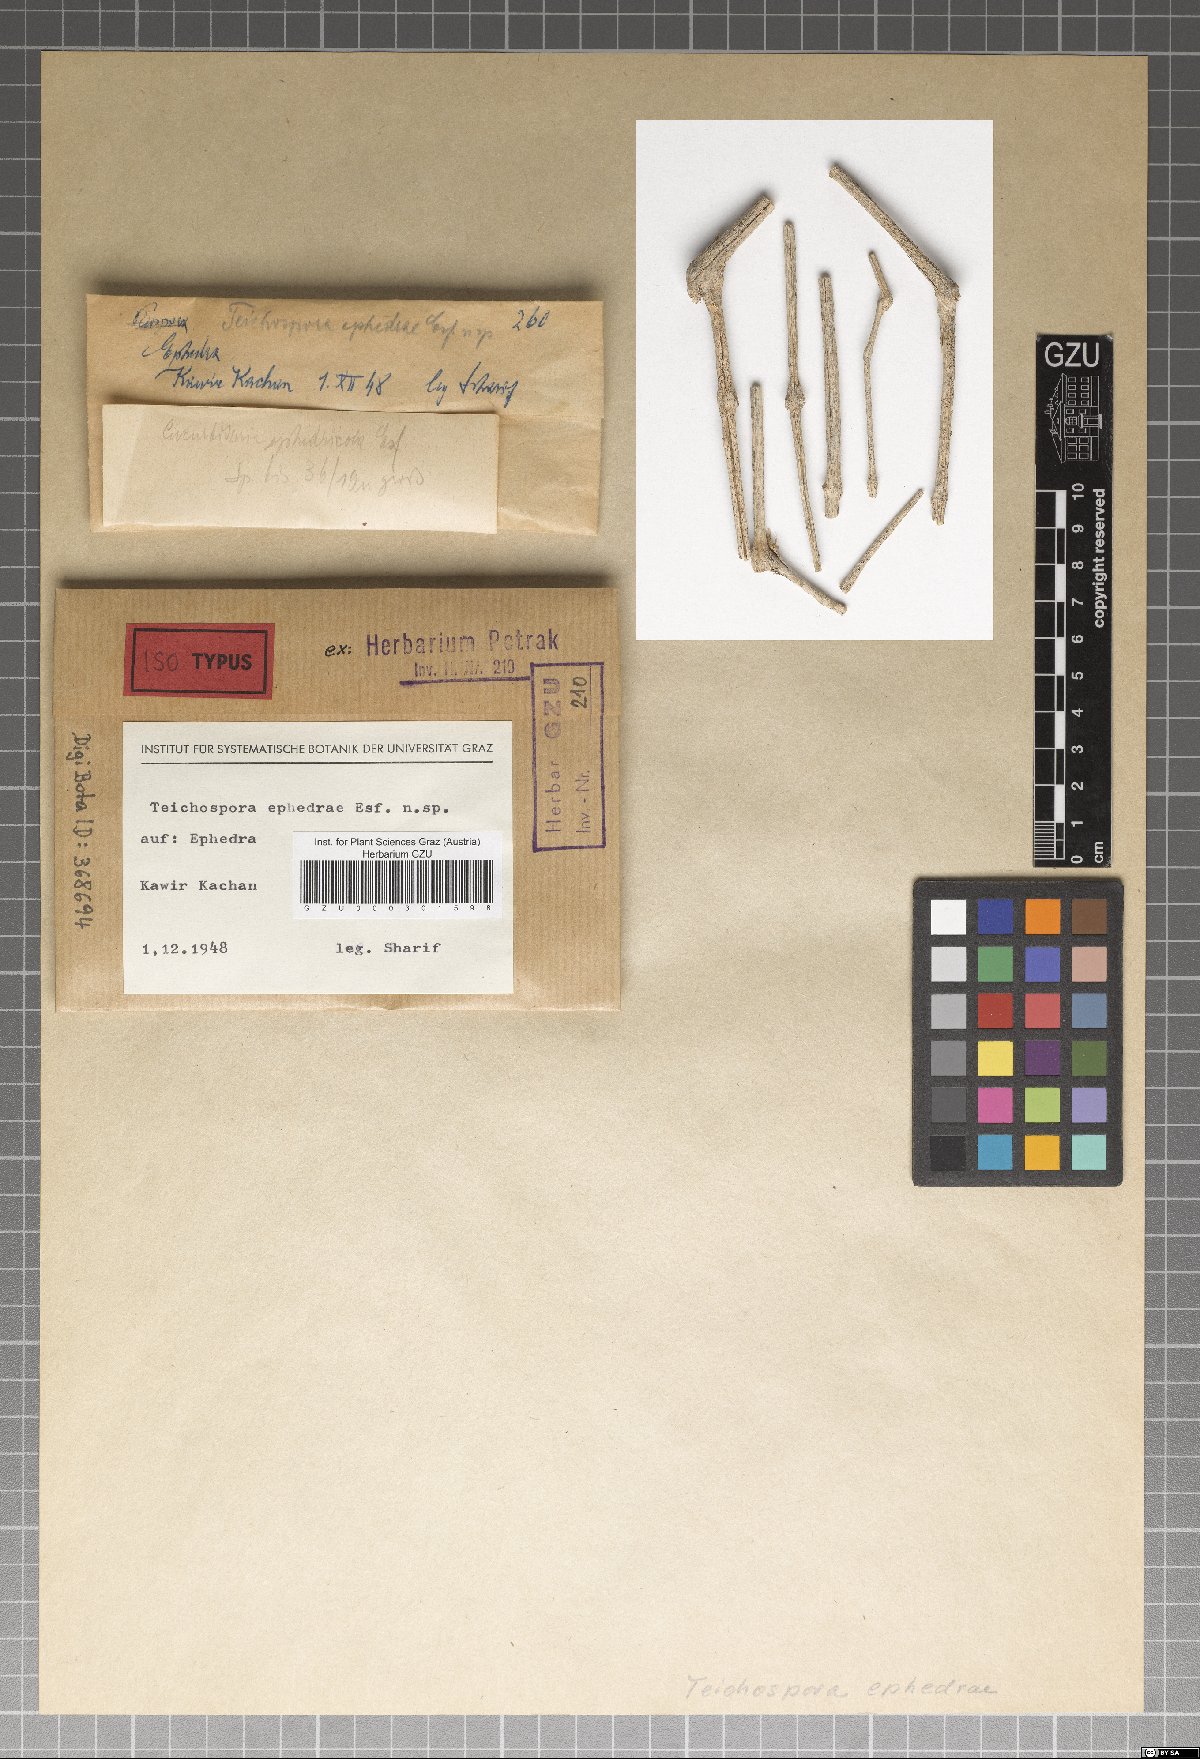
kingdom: Fungi
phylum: Ascomycota
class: Dothideomycetes
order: Pleosporales
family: Teichosporaceae
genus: Teichospora
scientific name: Teichospora ephedrae
